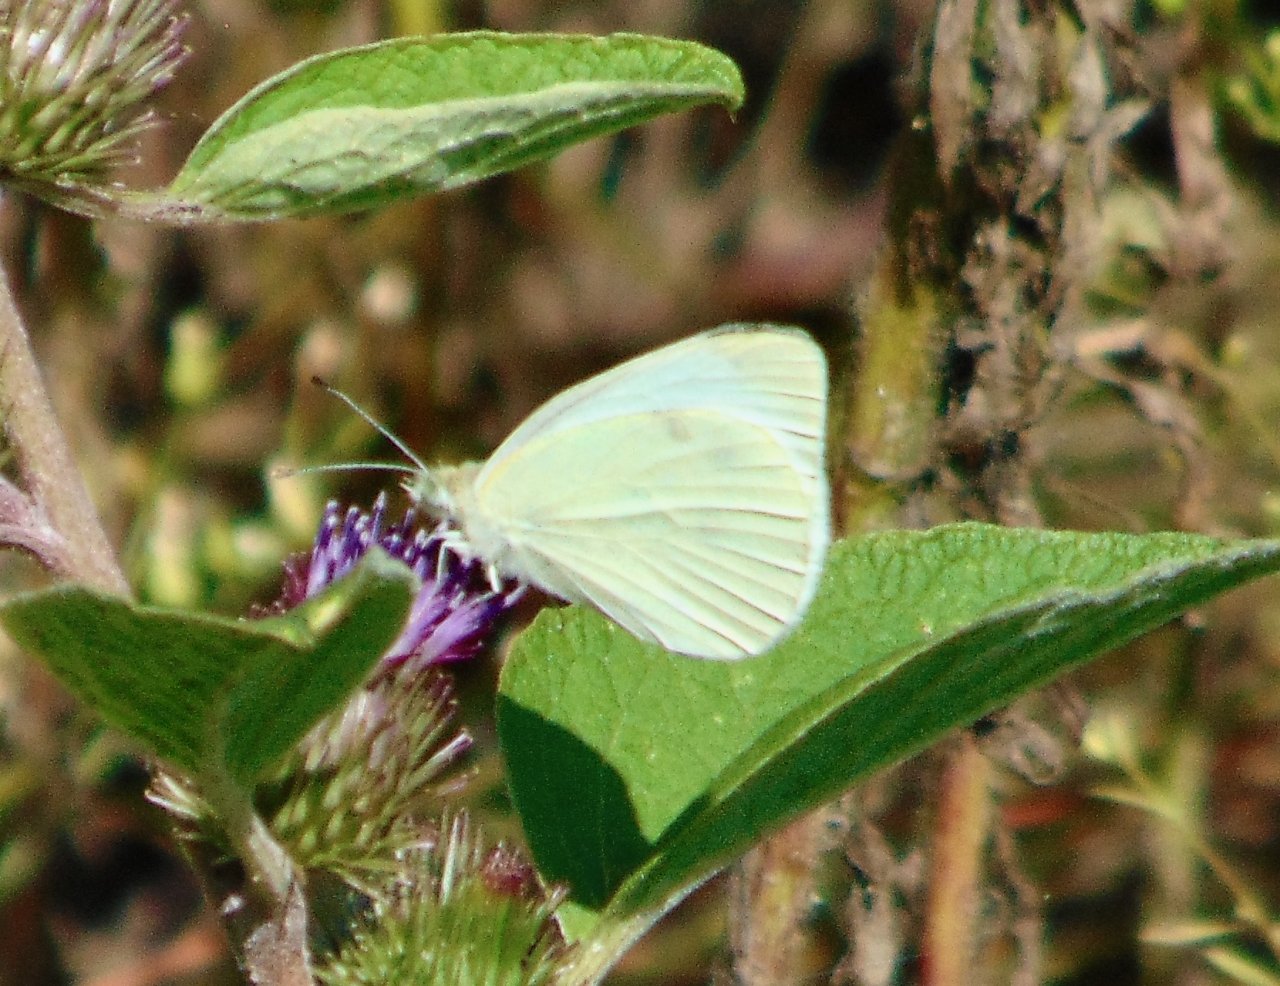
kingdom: Animalia
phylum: Arthropoda
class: Insecta
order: Lepidoptera
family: Pieridae
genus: Pieris
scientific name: Pieris rapae
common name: Cabbage White
